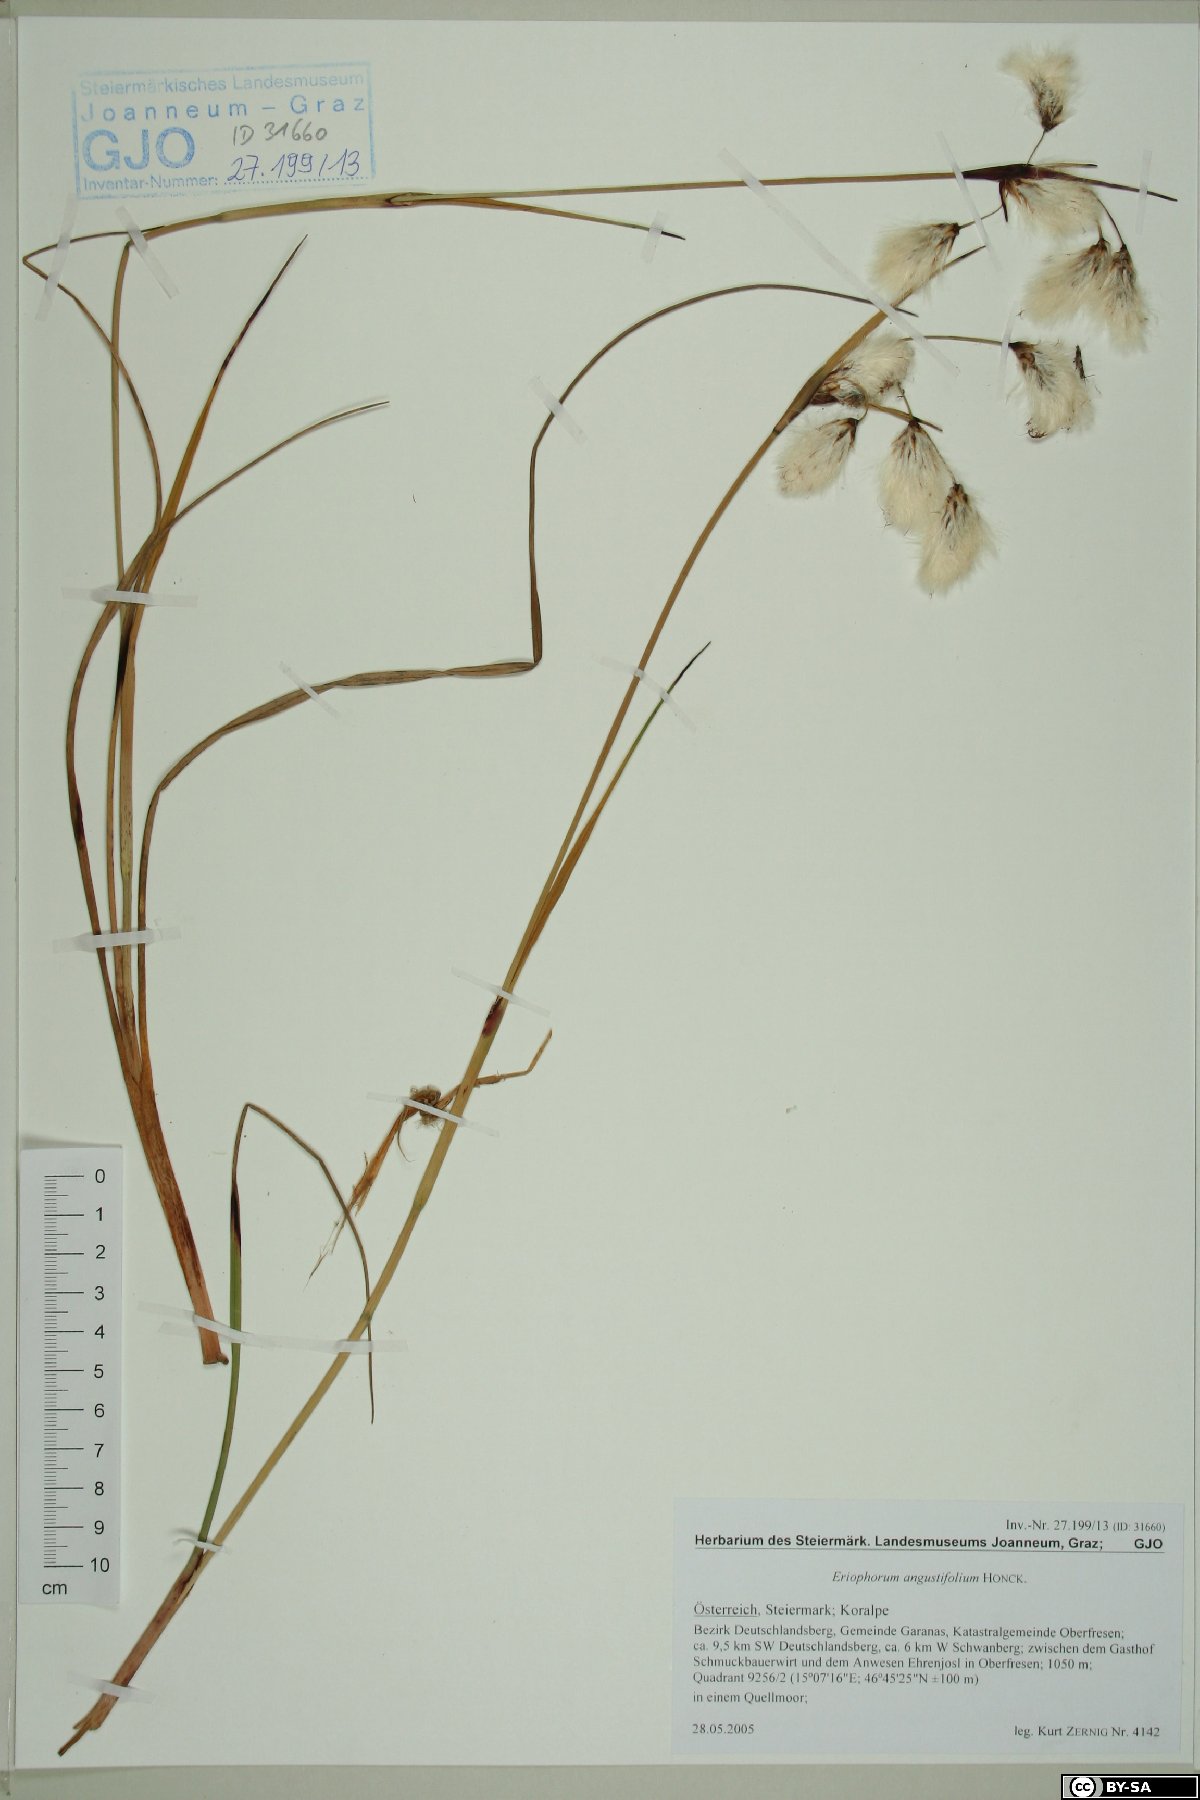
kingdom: Plantae
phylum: Tracheophyta
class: Liliopsida
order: Poales
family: Cyperaceae
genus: Eriophorum
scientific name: Eriophorum angustifolium
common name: Common cottongrass
